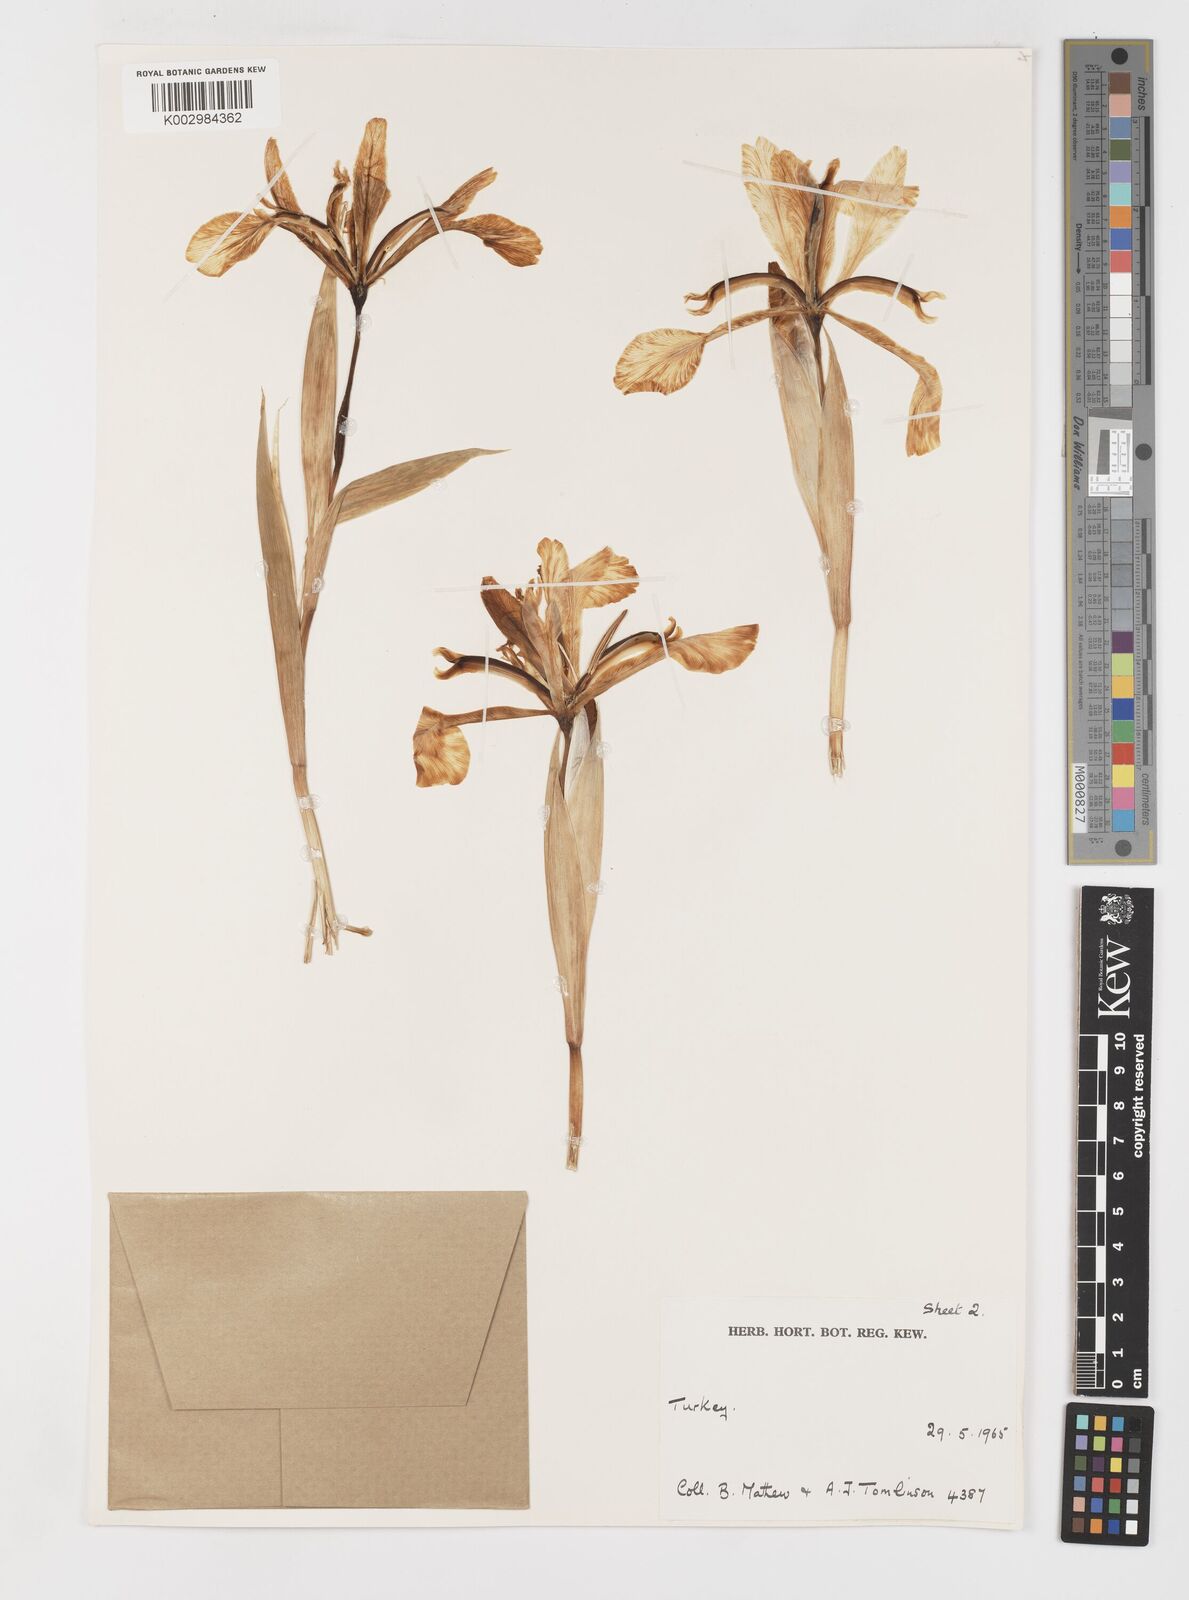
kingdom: Plantae
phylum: Tracheophyta
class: Liliopsida
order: Asparagales
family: Iridaceae
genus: Iris
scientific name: Iris orientalis
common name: Turkish iris
